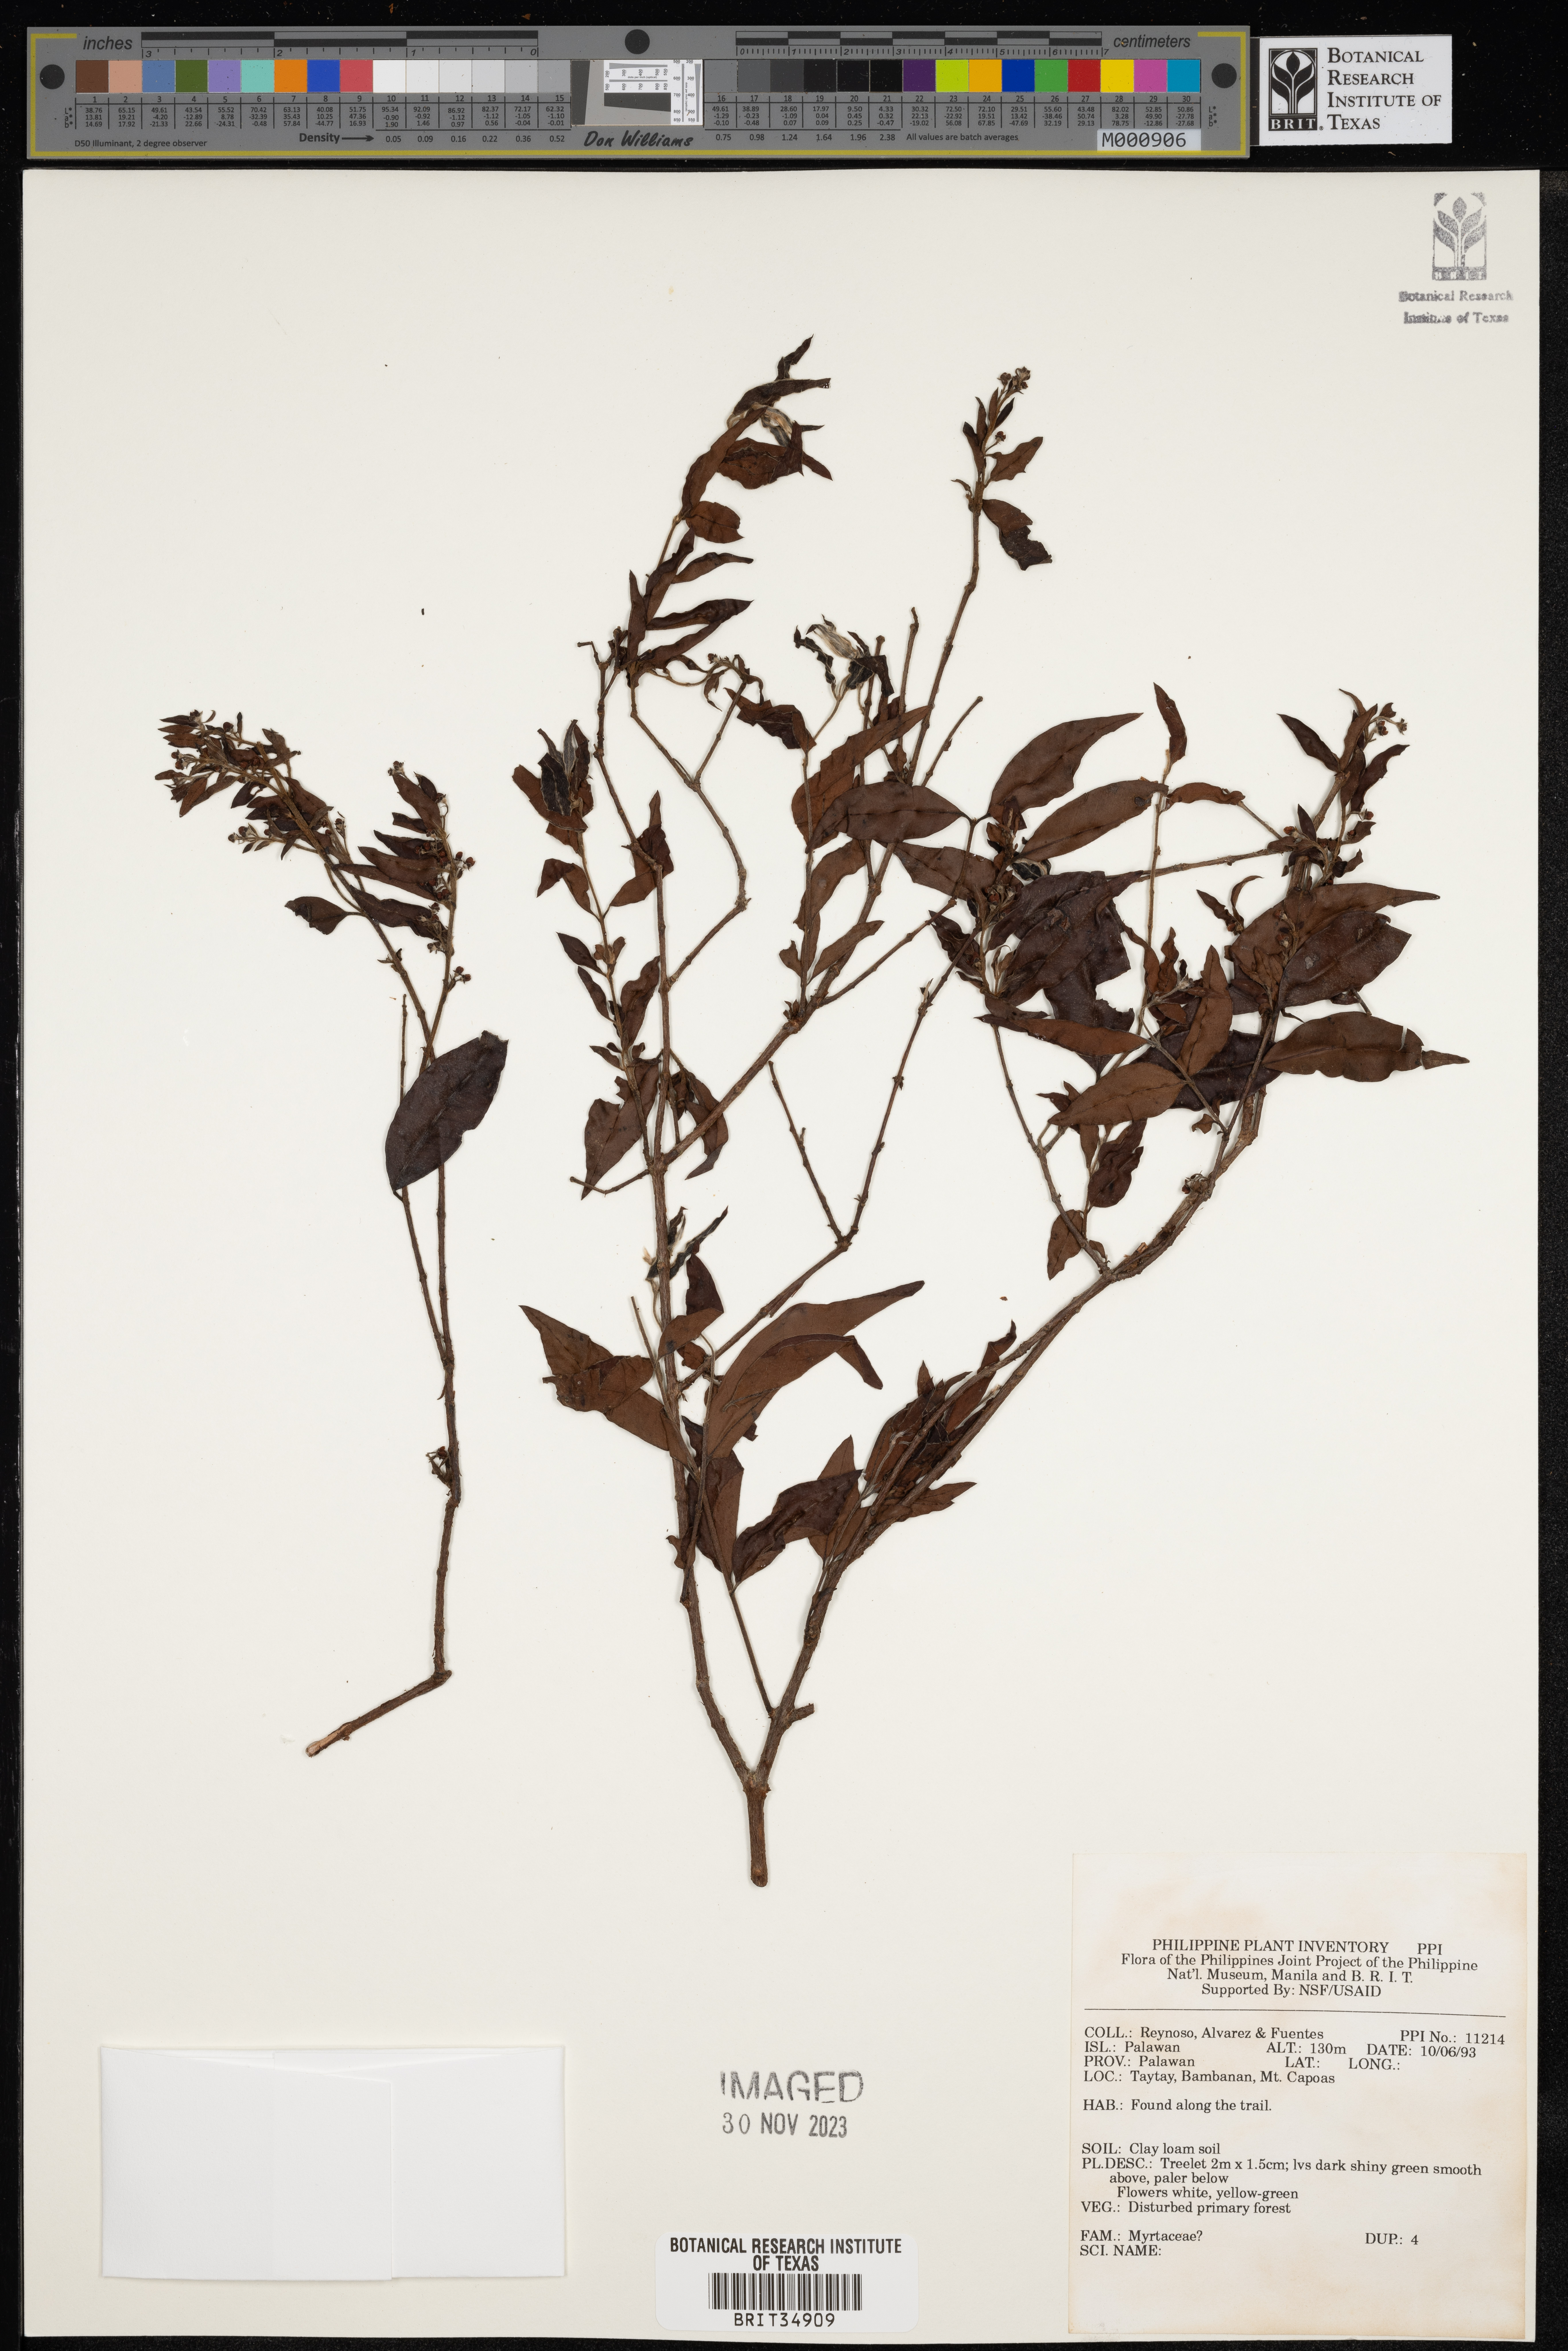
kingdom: Plantae
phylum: Tracheophyta
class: Magnoliopsida
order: Myrtales
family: Myrtaceae
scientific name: Myrtaceae
